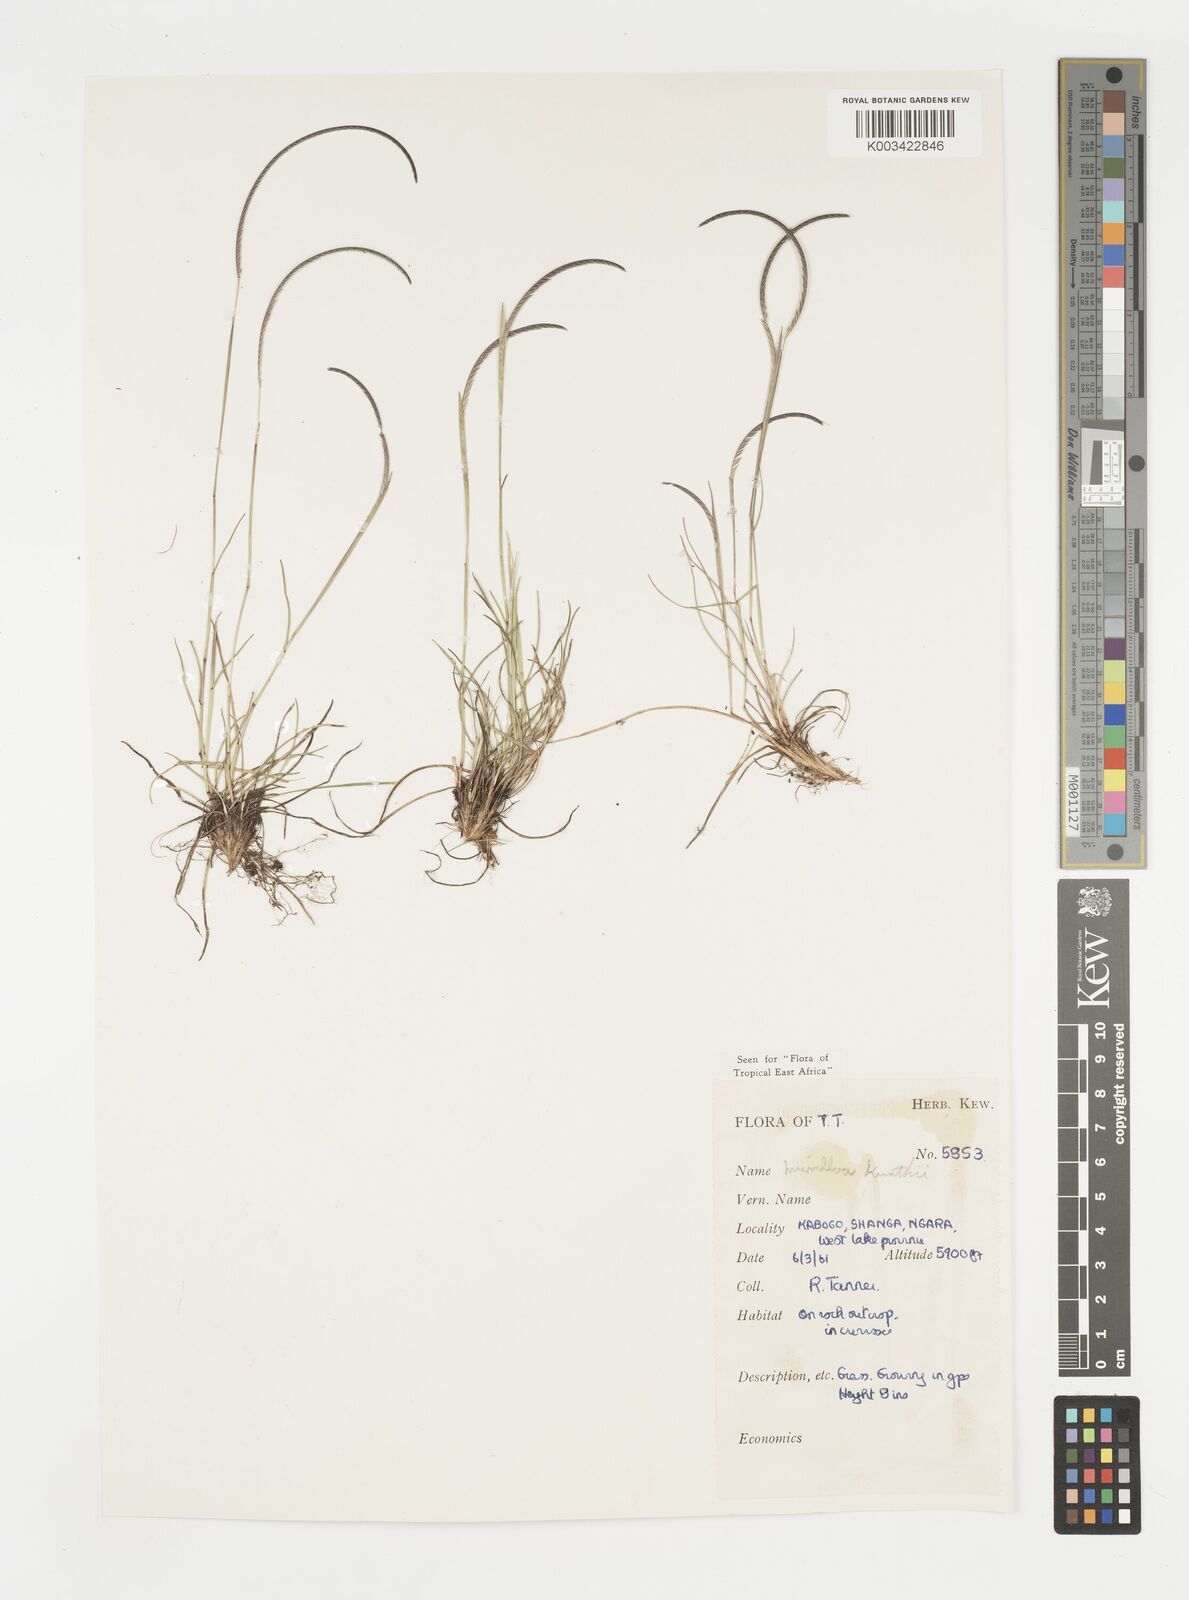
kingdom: Plantae
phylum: Tracheophyta
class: Liliopsida
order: Poales
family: Poaceae
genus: Microchloa
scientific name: Microchloa kunthii
